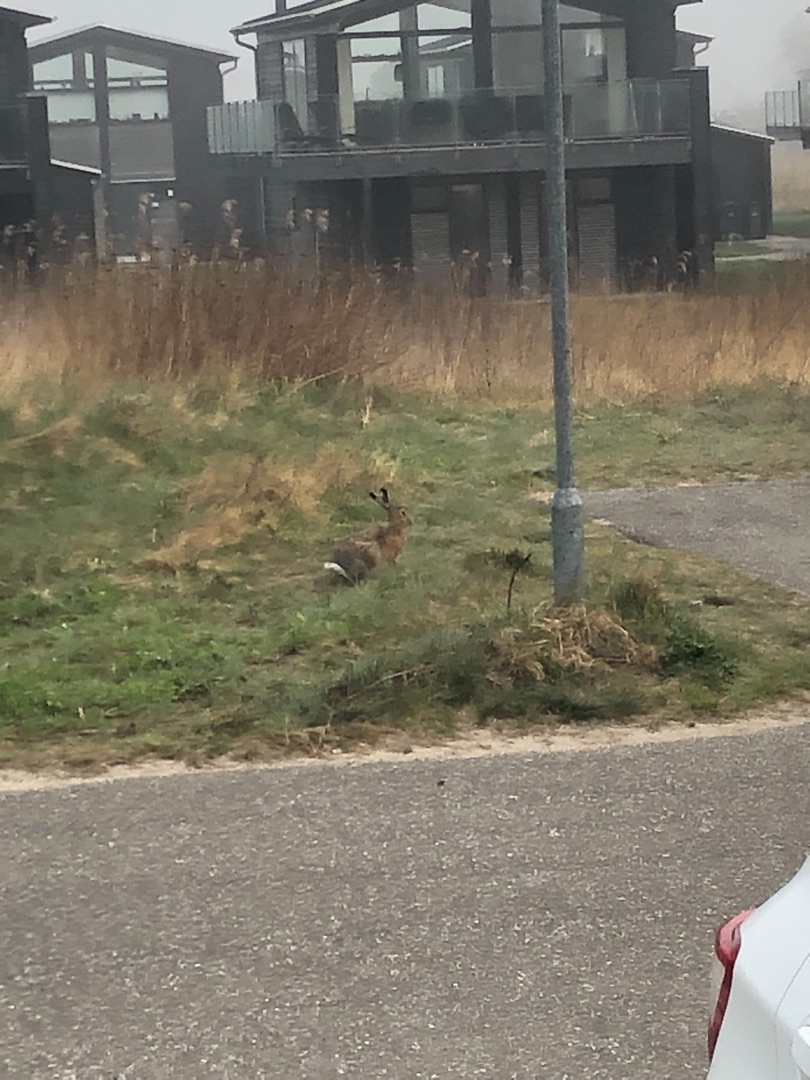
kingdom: Animalia
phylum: Chordata
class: Mammalia
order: Lagomorpha
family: Leporidae
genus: Lepus
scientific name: Lepus europaeus
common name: Hare
